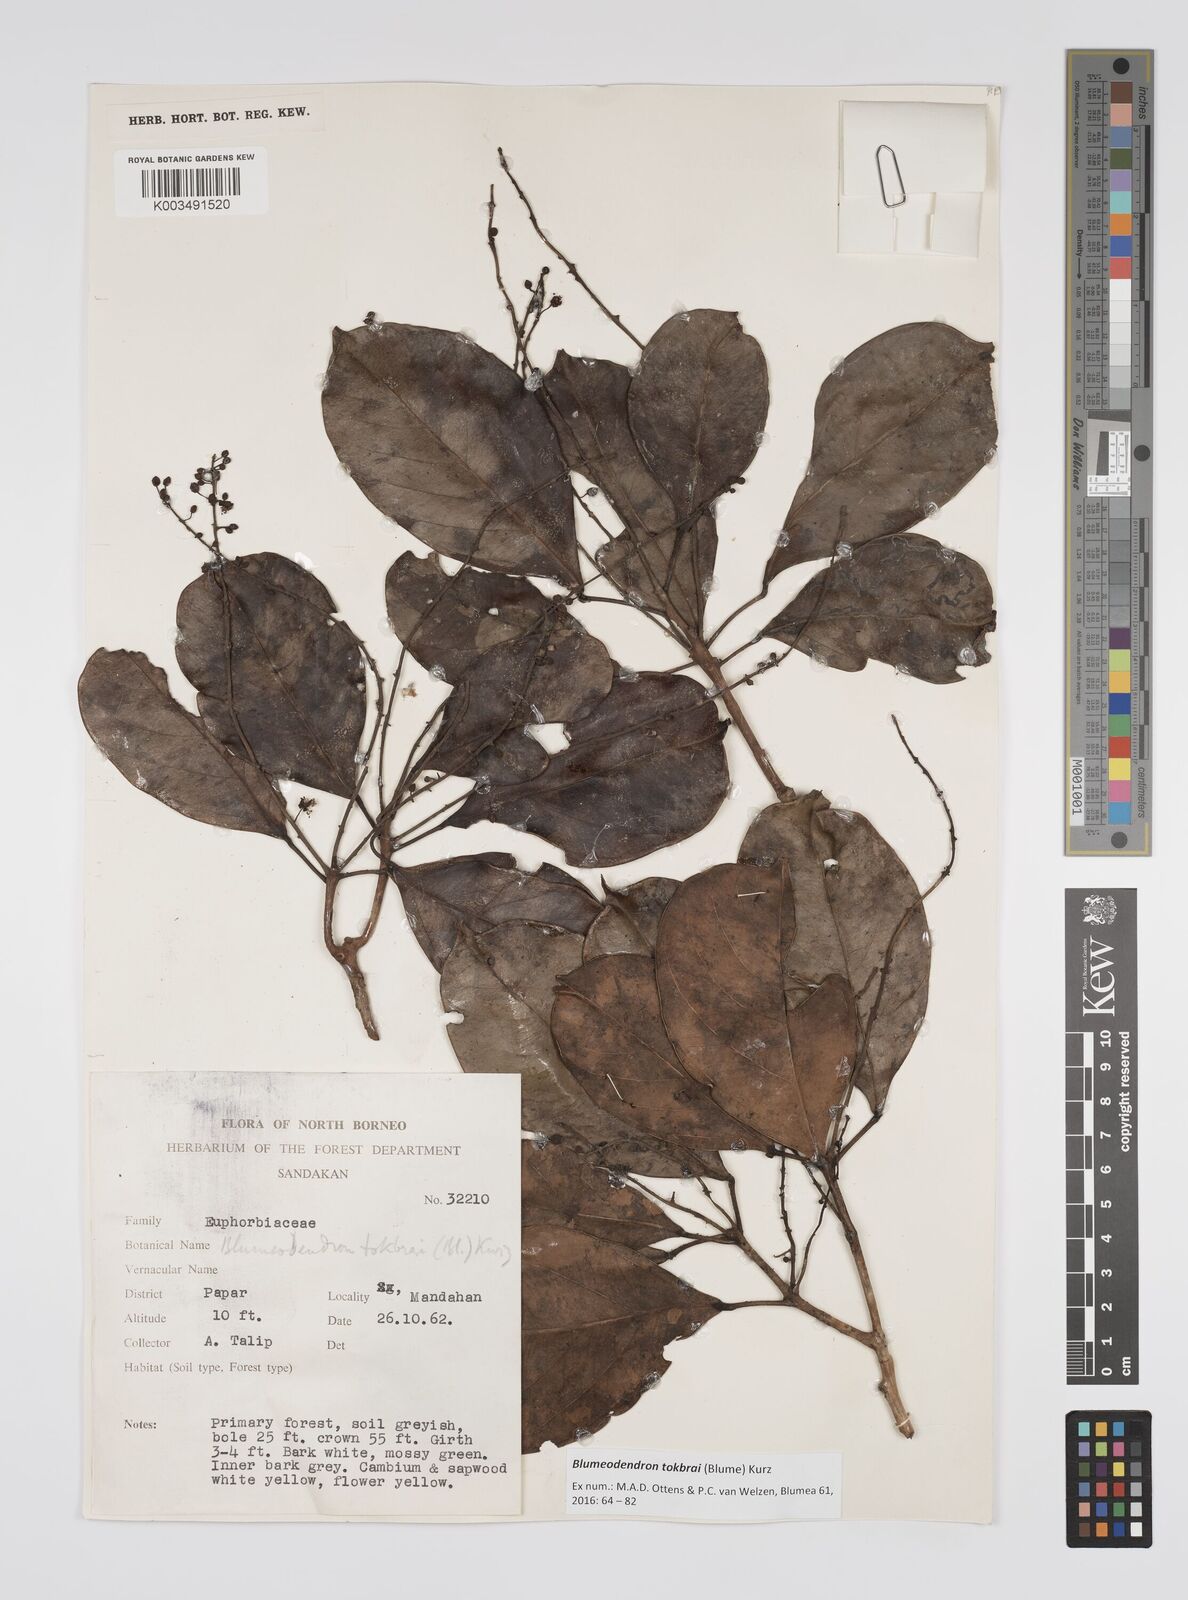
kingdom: Plantae
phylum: Tracheophyta
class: Magnoliopsida
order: Malpighiales
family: Euphorbiaceae
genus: Blumeodendron
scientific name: Blumeodendron tokbrai
